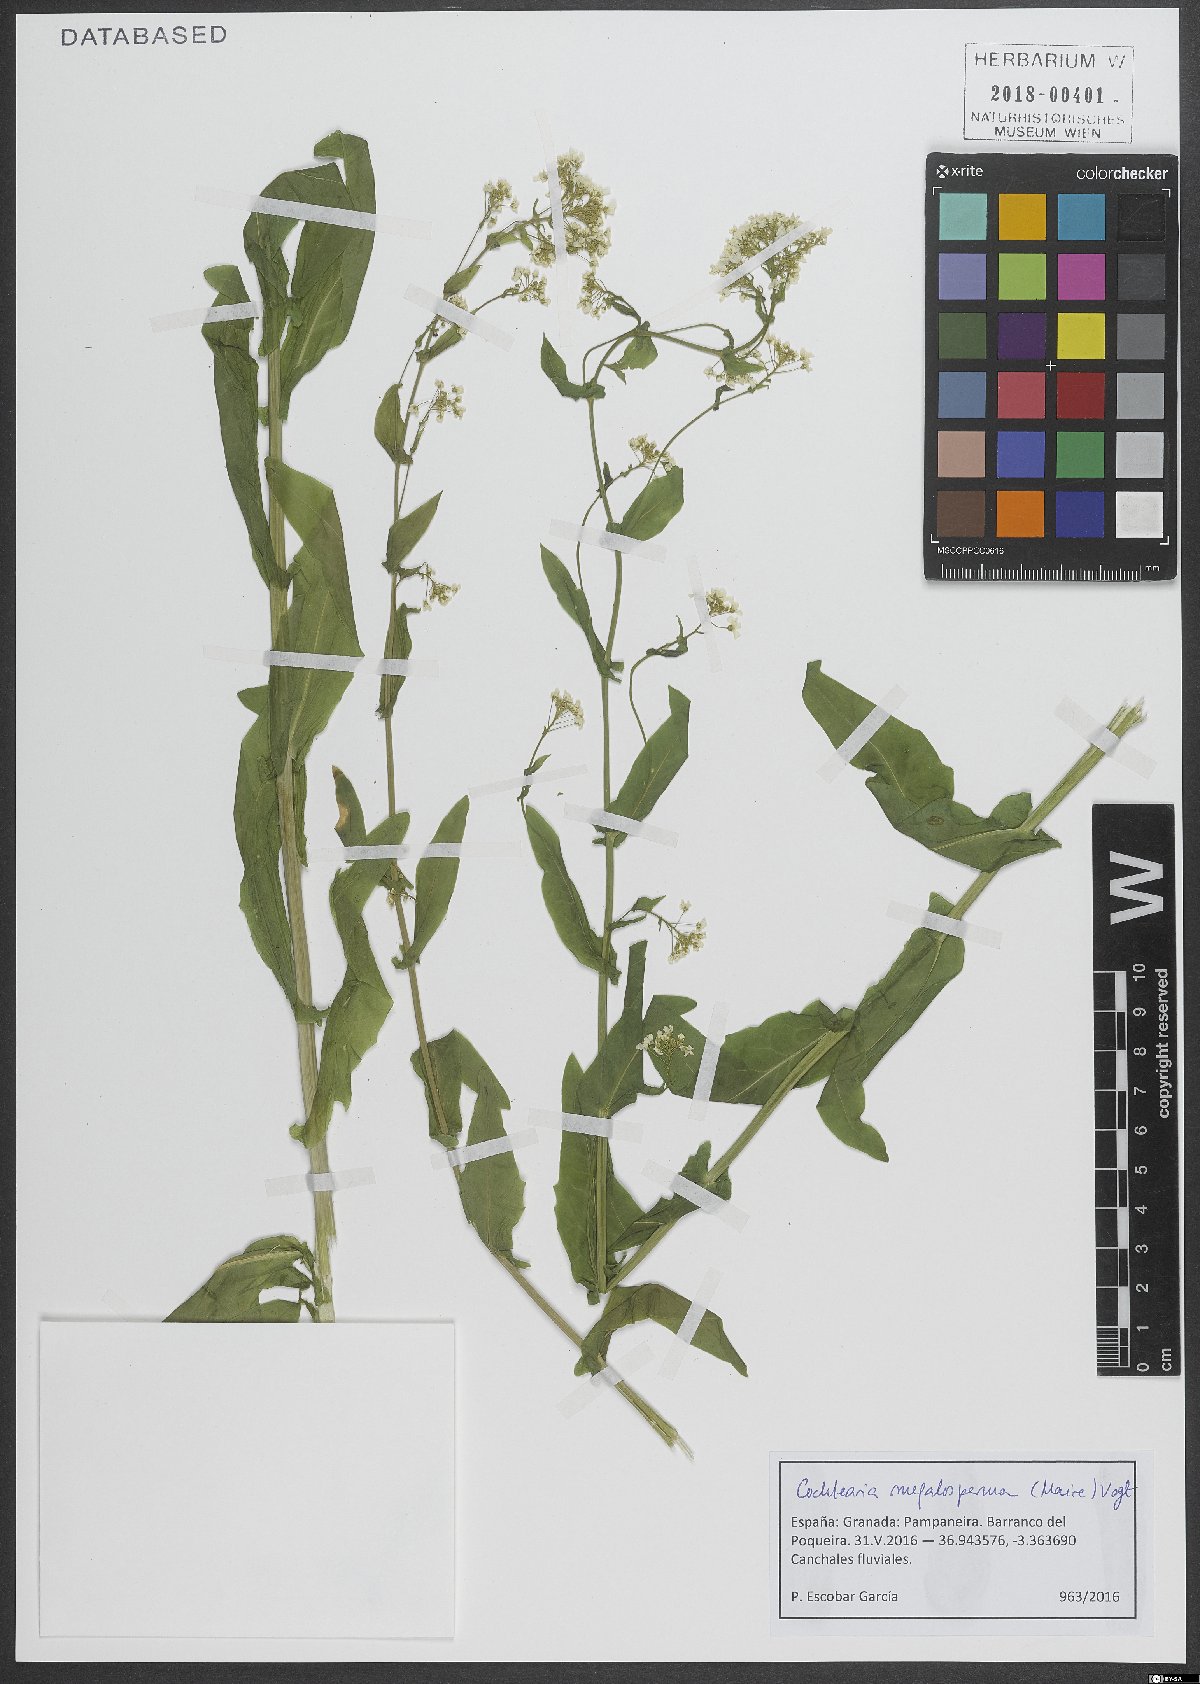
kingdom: Plantae
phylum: Tracheophyta
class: Magnoliopsida
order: Brassicales
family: Brassicaceae
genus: Ionopsidium
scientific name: Ionopsidium megalospermum
